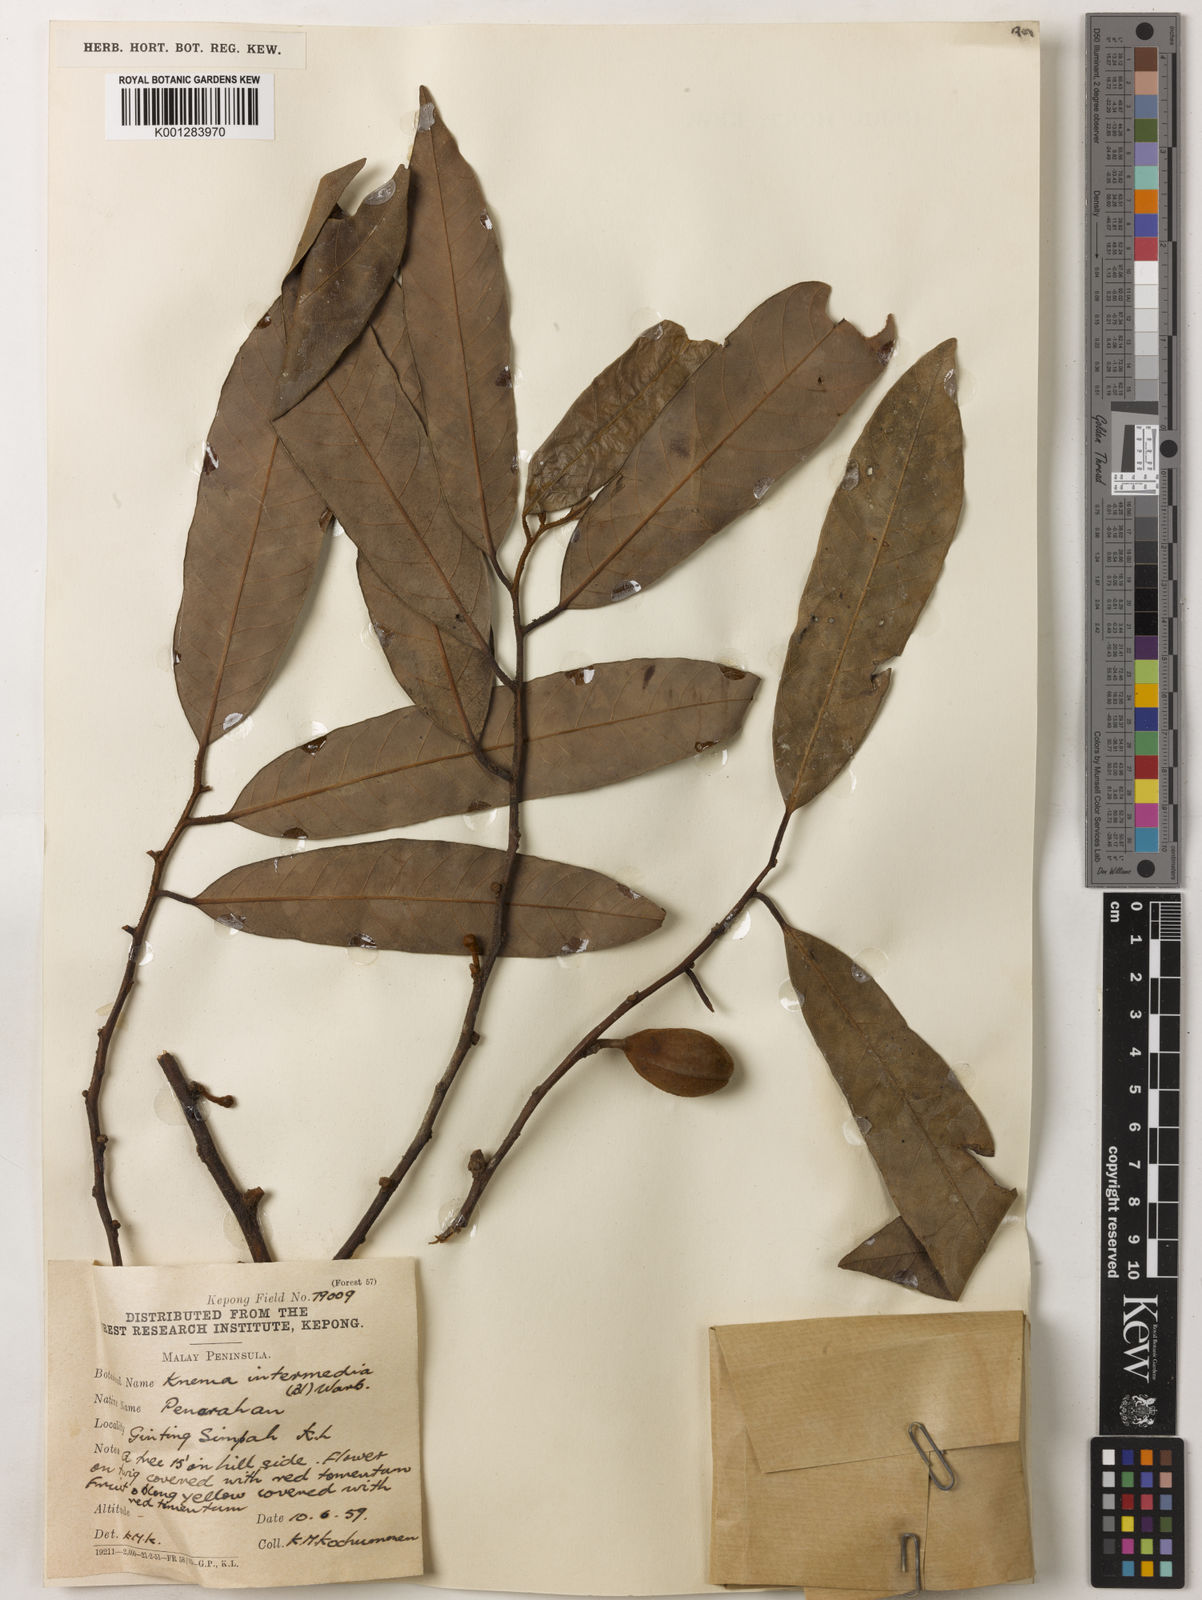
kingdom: Plantae
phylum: Tracheophyta
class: Magnoliopsida
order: Magnoliales
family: Myristicaceae
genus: Knema
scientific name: Knema intermedia
